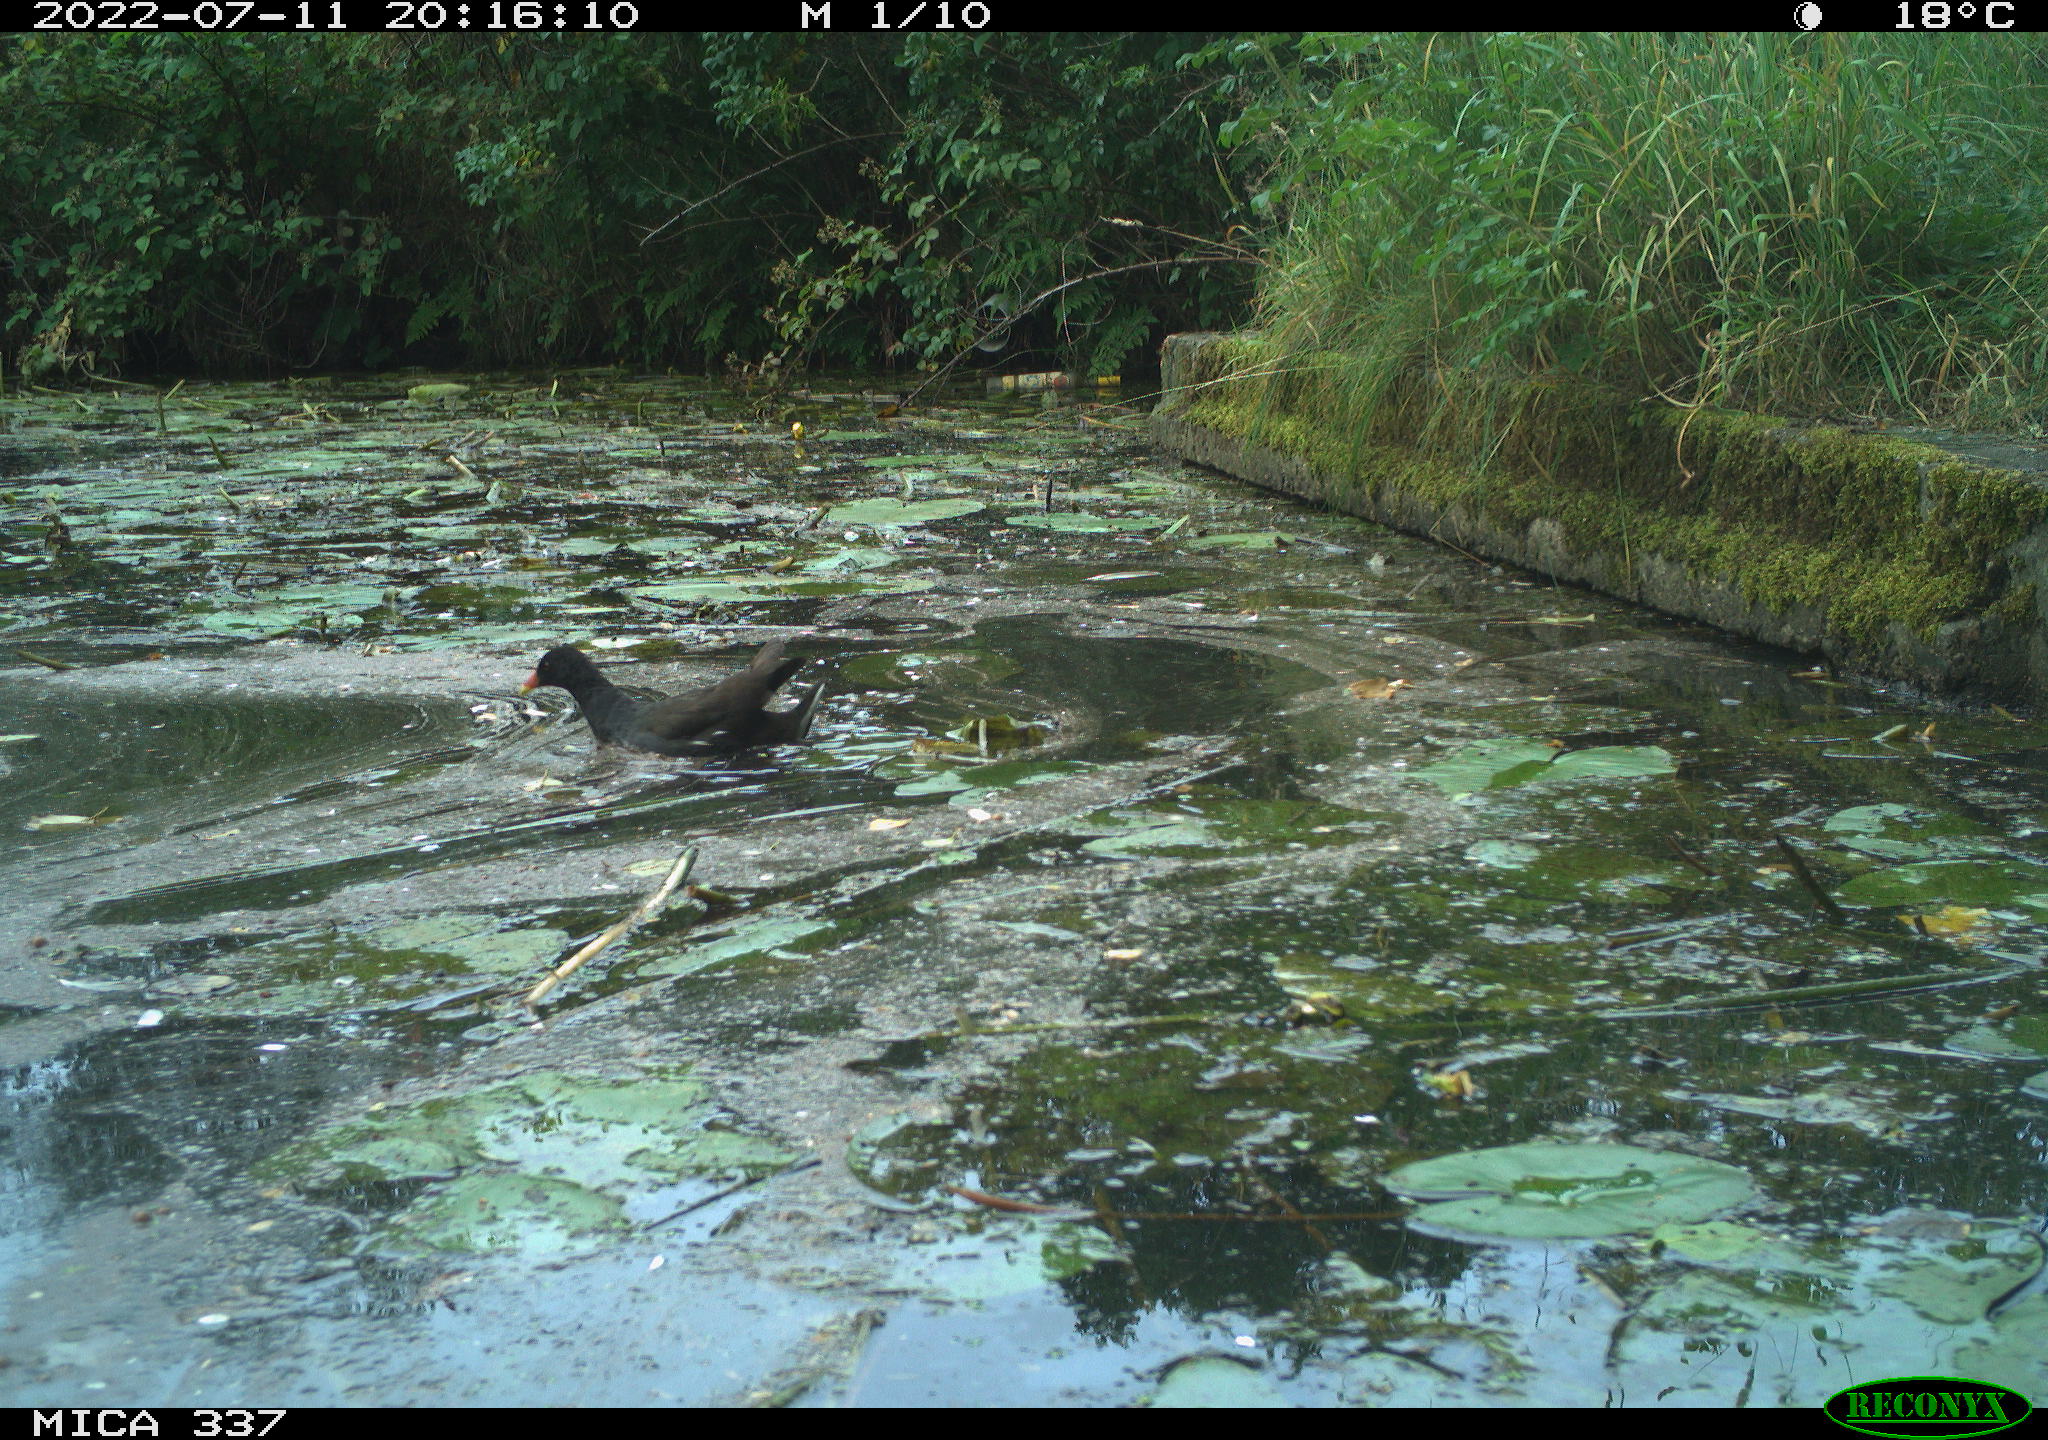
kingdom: Animalia
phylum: Chordata
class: Aves
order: Gruiformes
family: Rallidae
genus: Gallinula
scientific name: Gallinula chloropus
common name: Common moorhen
